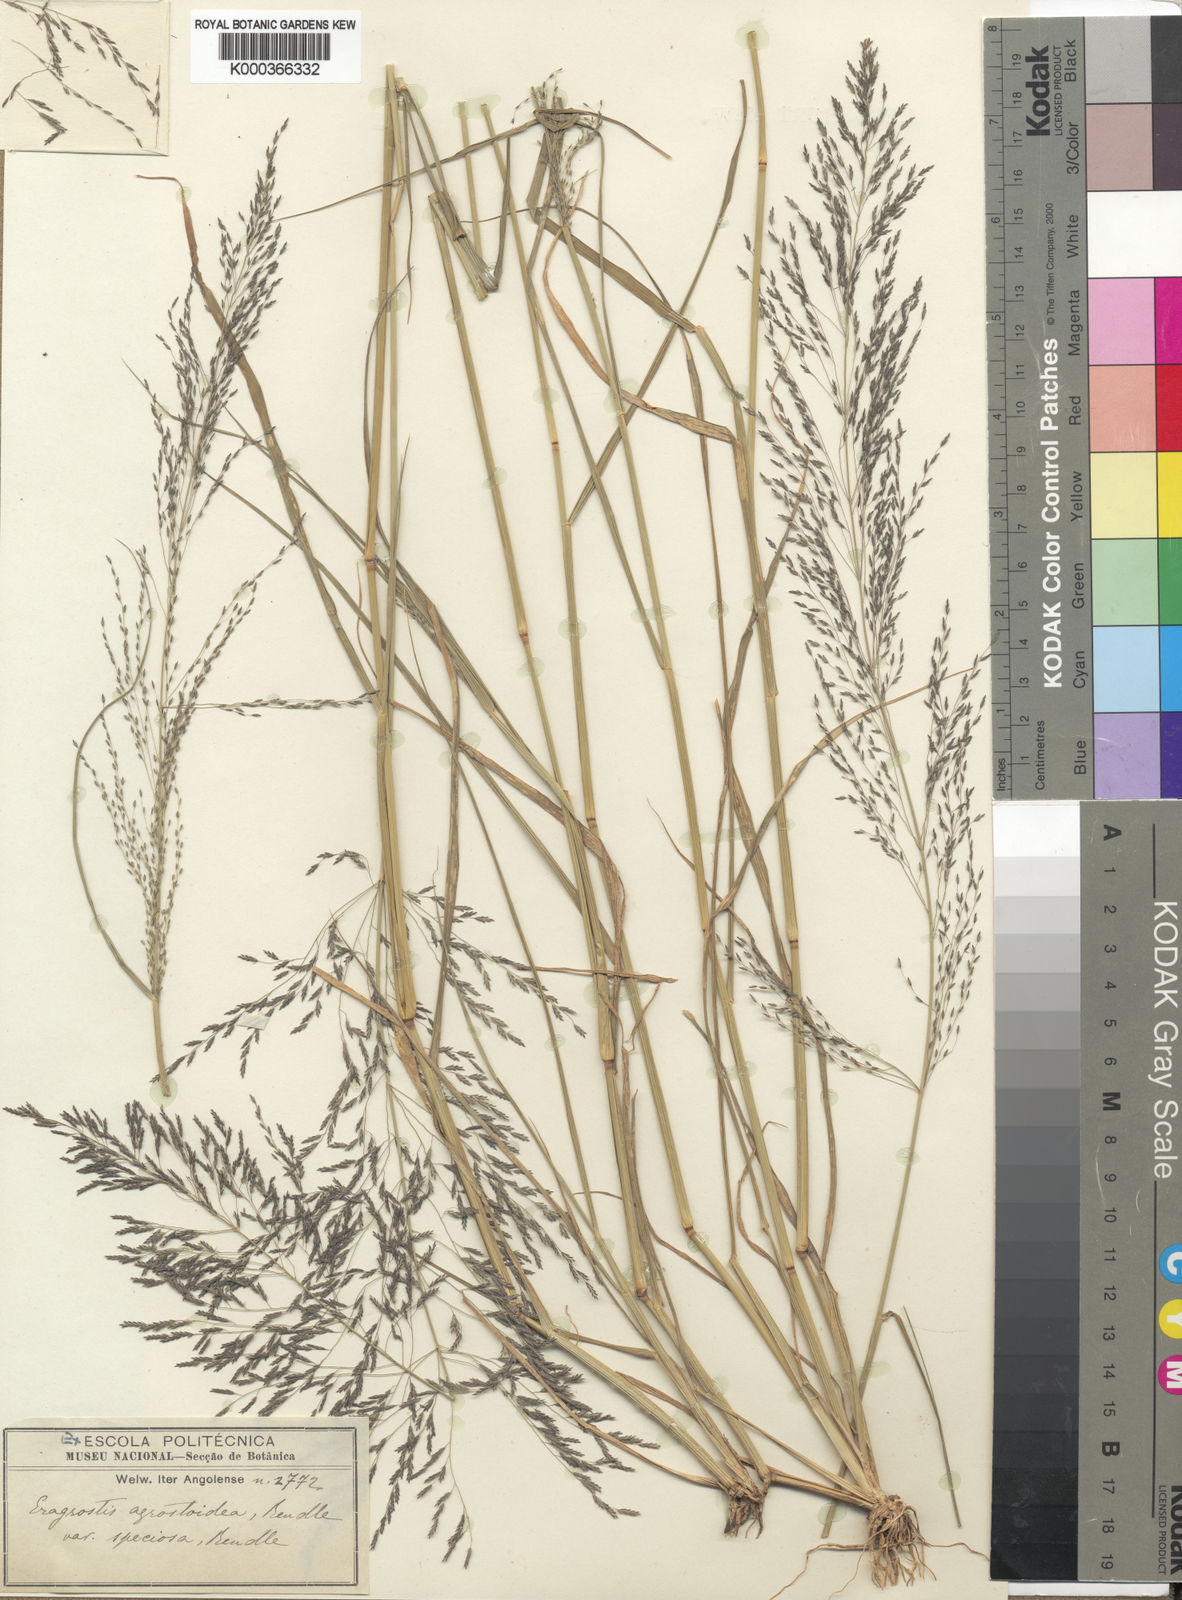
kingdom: Plantae
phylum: Tracheophyta
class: Liliopsida
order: Poales
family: Poaceae
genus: Eragrostis
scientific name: Eragrostis cylindriflora
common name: Cylinderflower lovegrass
